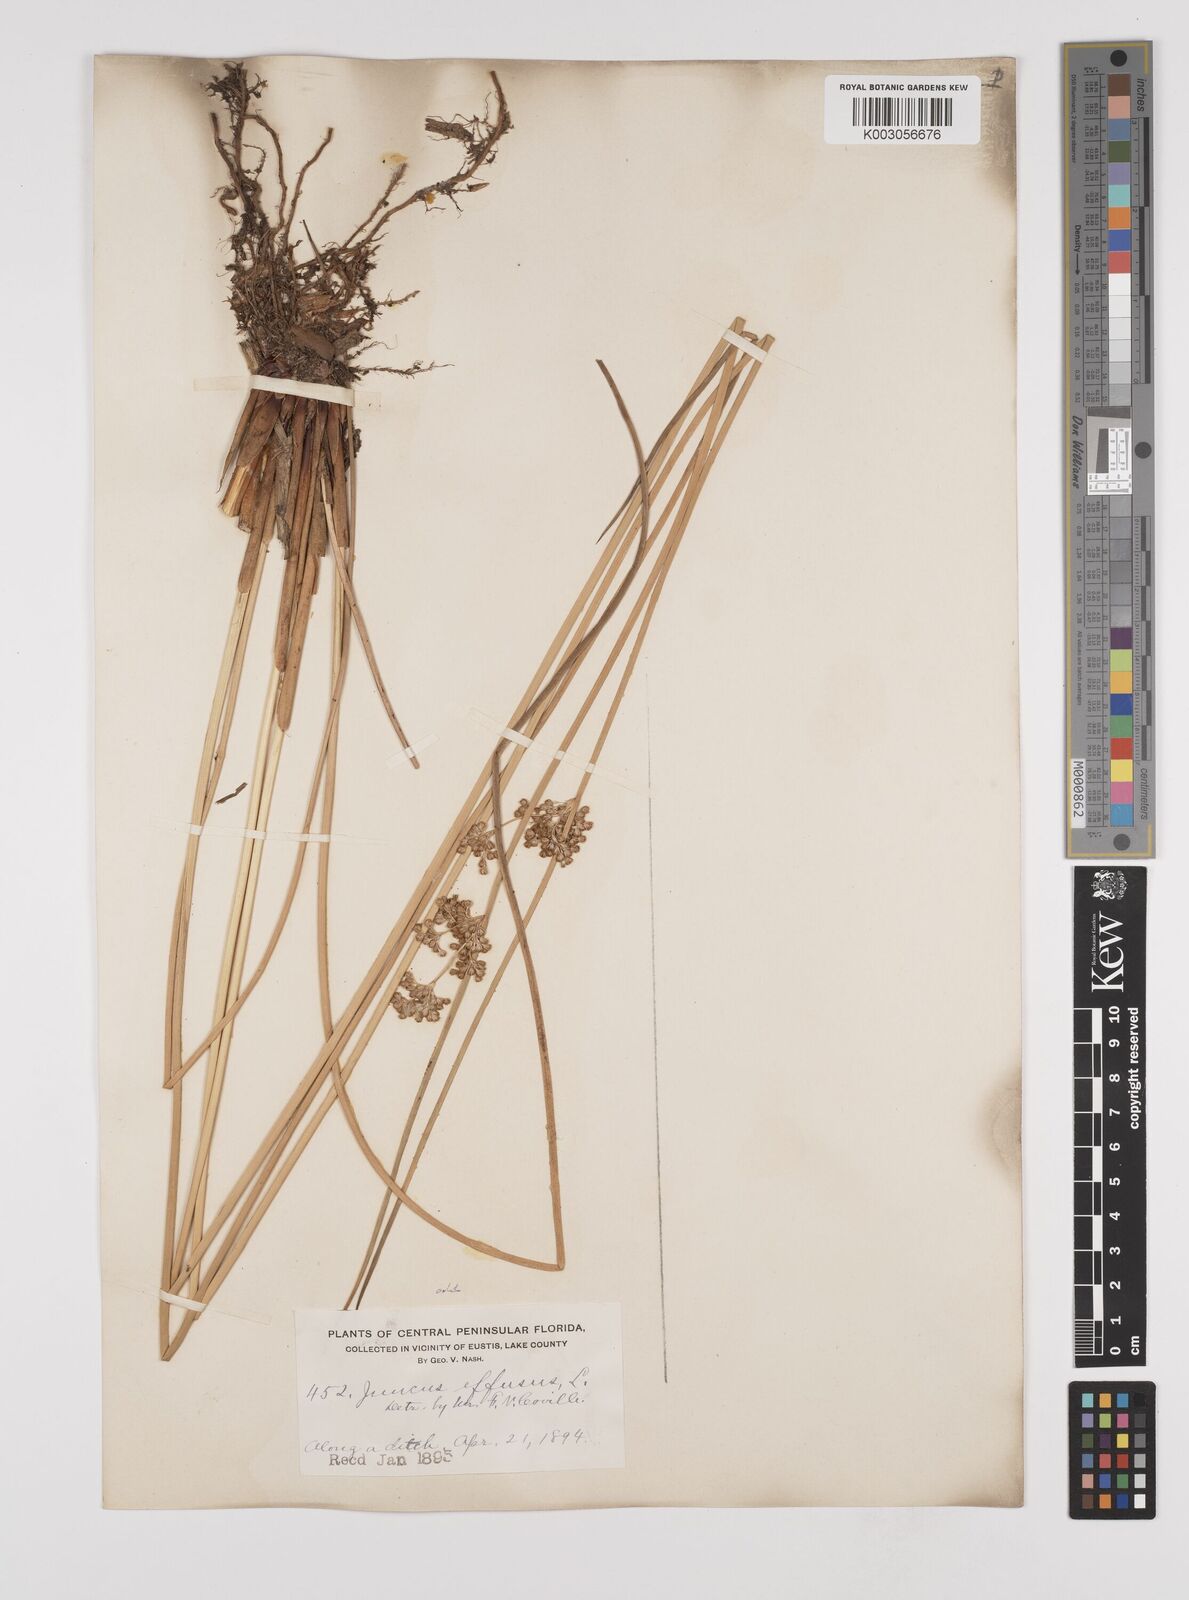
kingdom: Plantae
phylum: Tracheophyta
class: Liliopsida
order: Poales
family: Juncaceae
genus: Juncus
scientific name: Juncus effusus
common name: Soft rush
